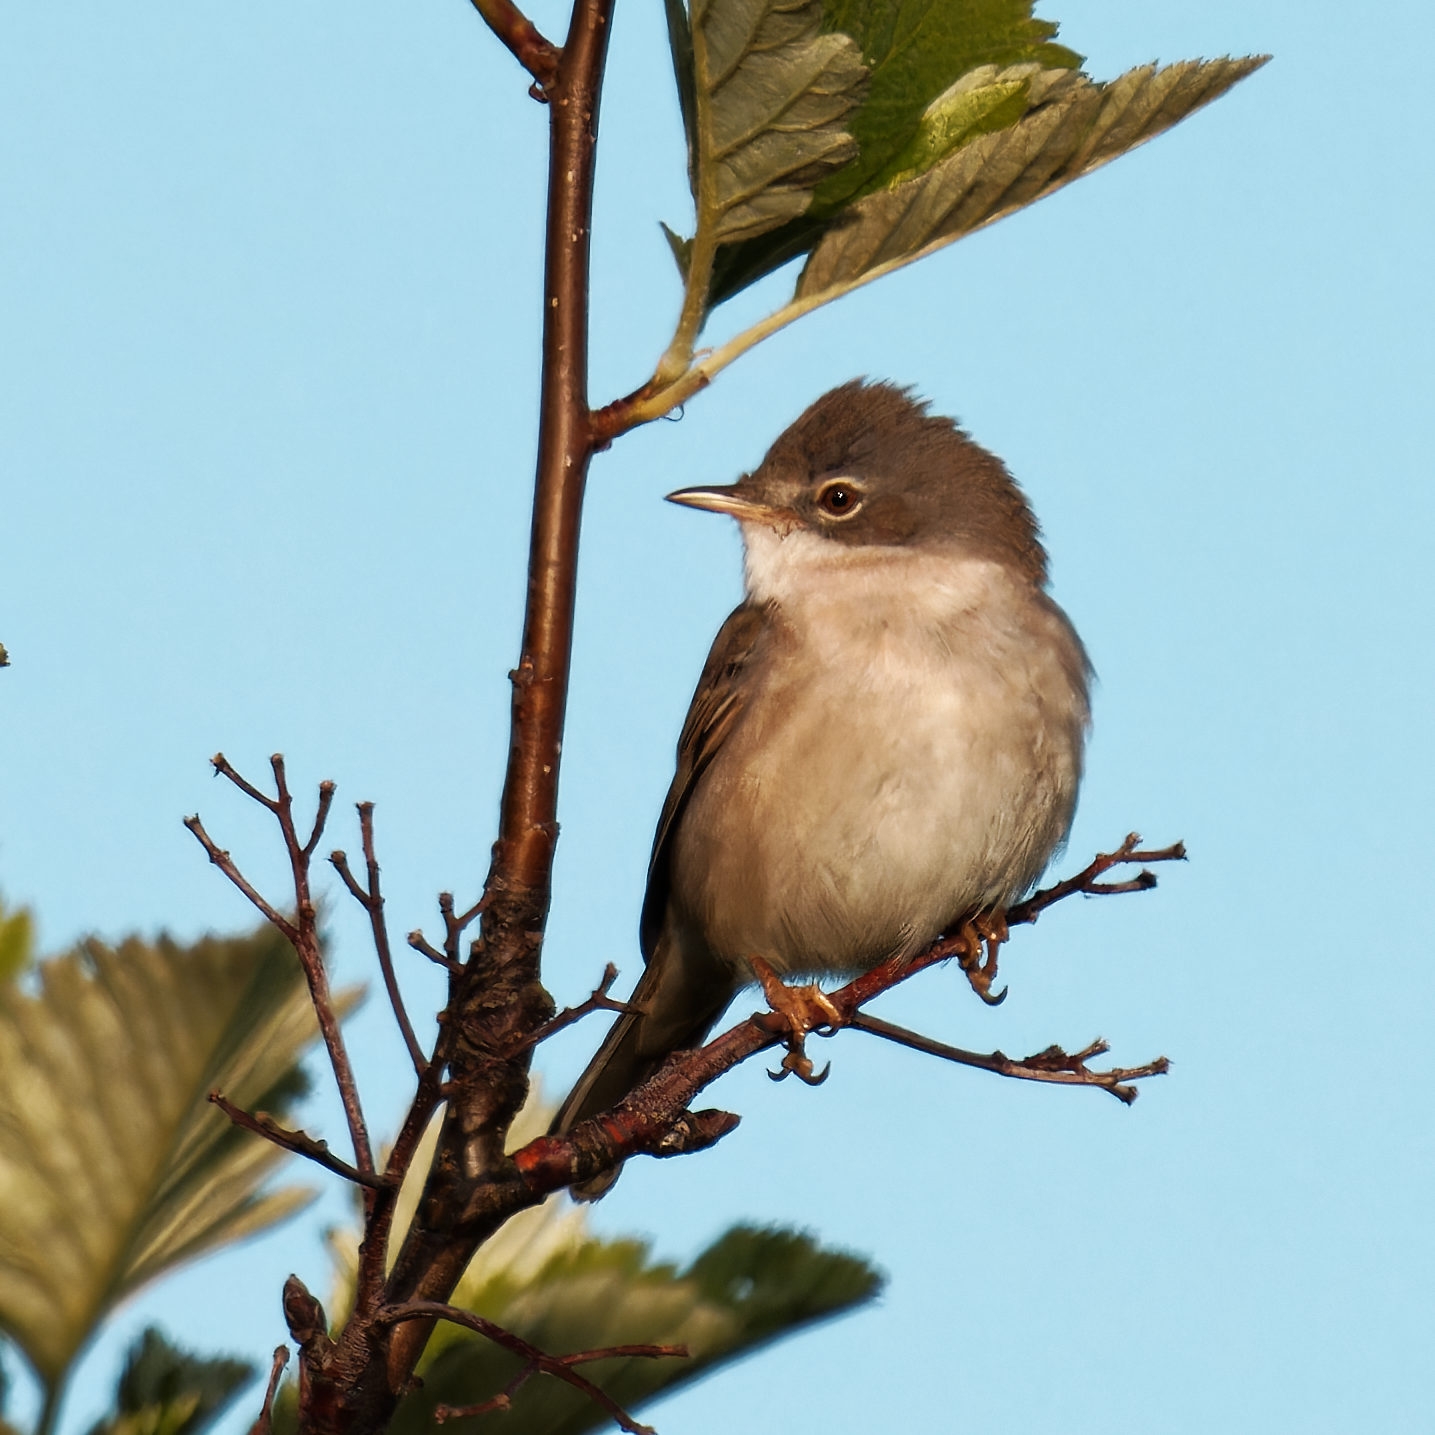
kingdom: Animalia
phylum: Chordata
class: Aves
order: Passeriformes
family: Sylviidae
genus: Sylvia
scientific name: Sylvia communis
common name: Tornsanger
